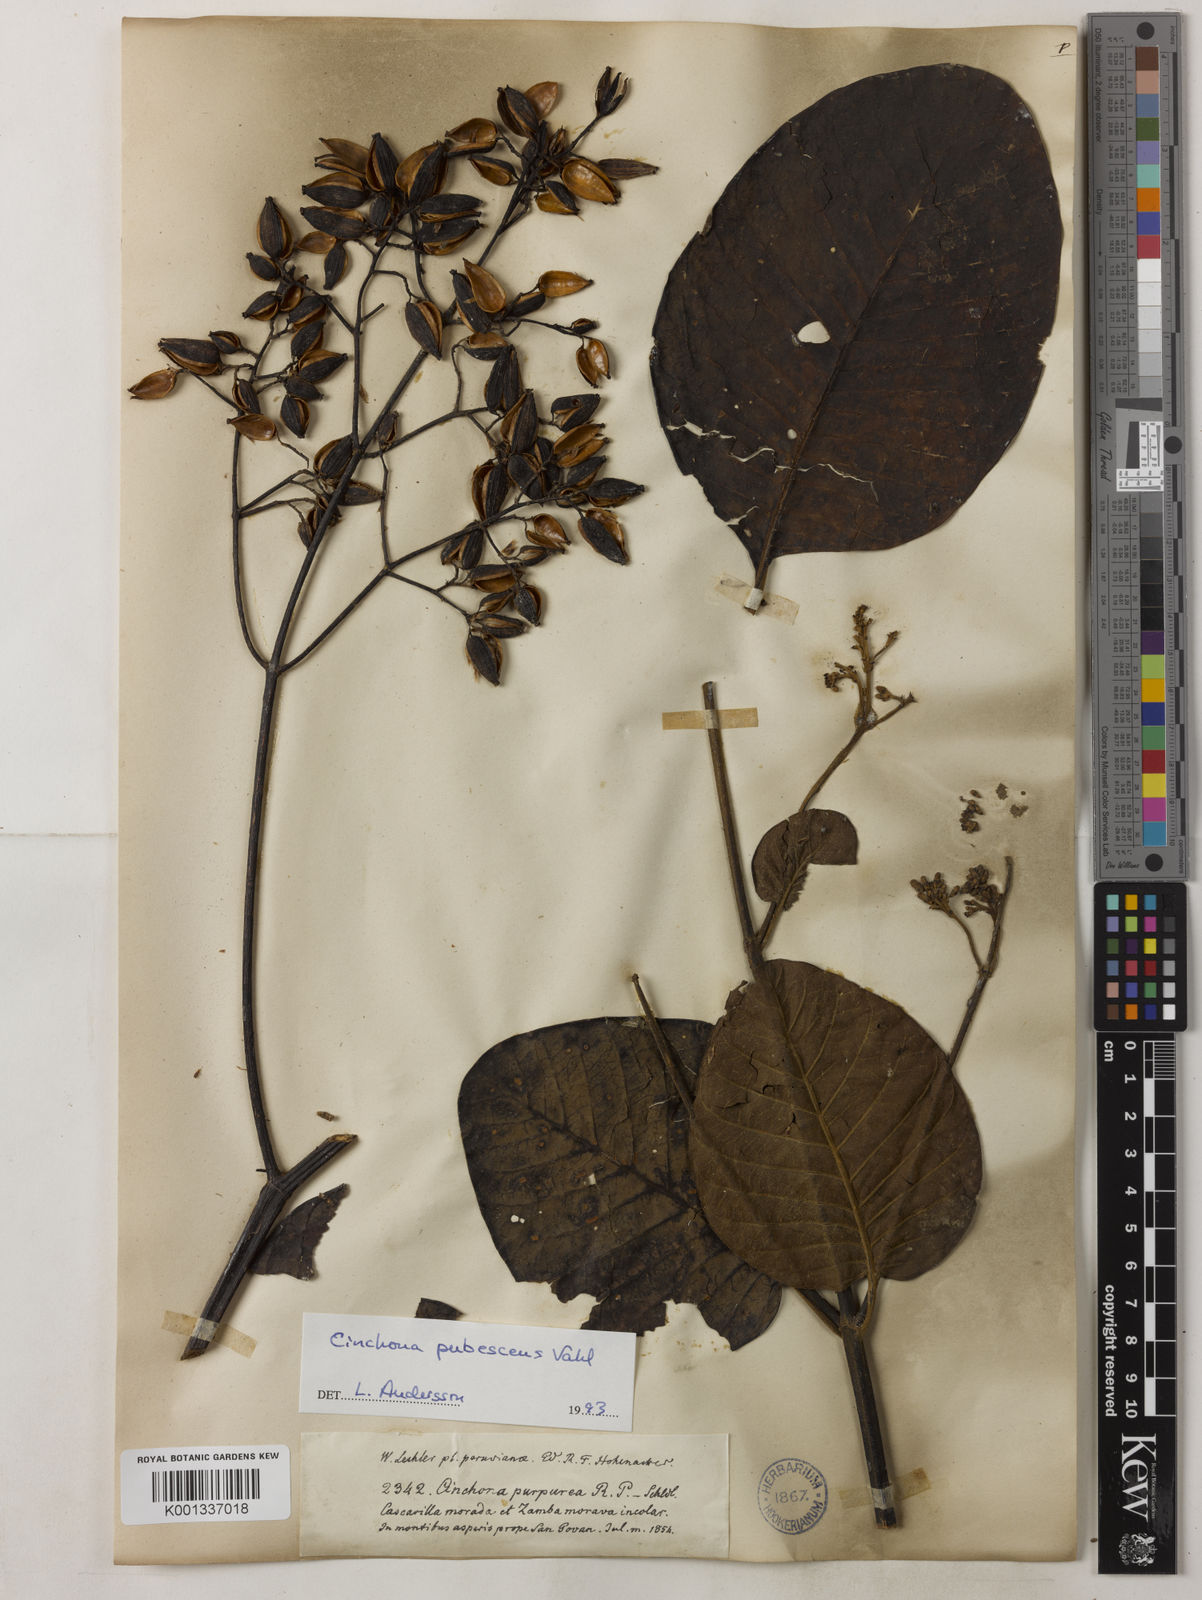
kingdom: Plantae
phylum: Tracheophyta
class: Magnoliopsida
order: Gentianales
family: Rubiaceae
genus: Cinchona
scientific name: Cinchona pubescens
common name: Quinine
